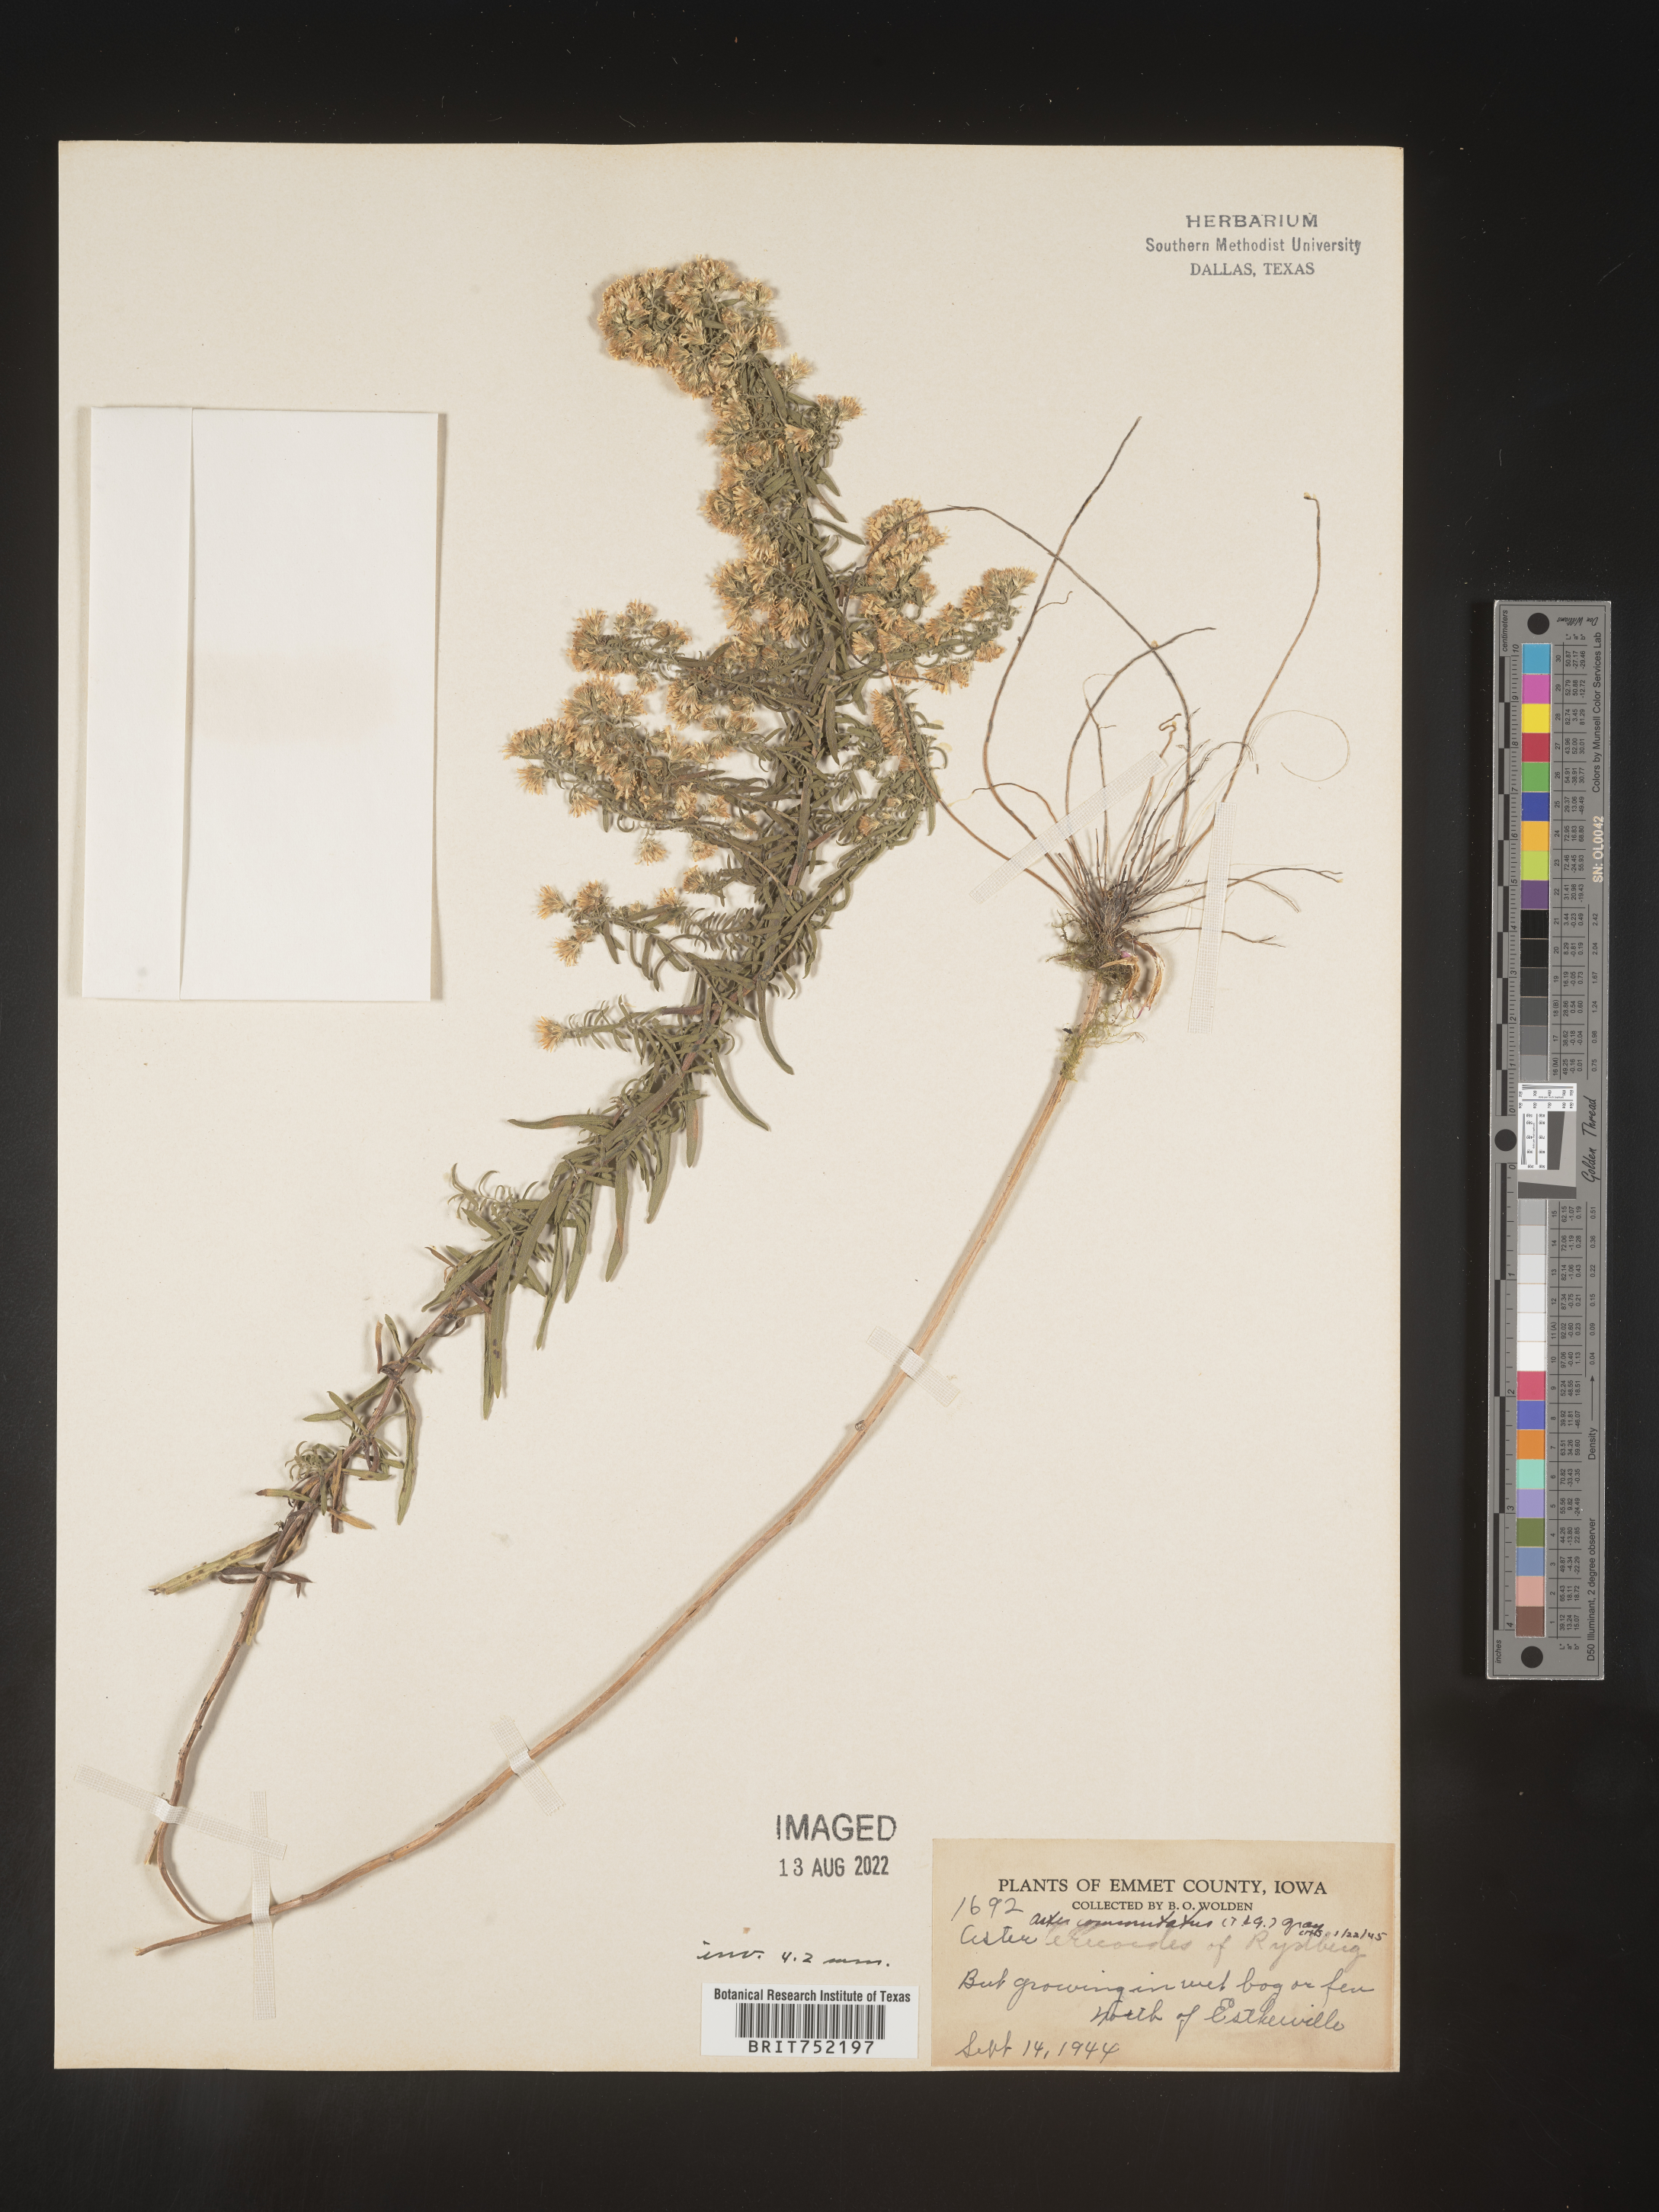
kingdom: Plantae
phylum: Tracheophyta
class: Magnoliopsida
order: Asterales
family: Asteraceae
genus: Symphyotrichum
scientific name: Symphyotrichum ericoides
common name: Heath aster
